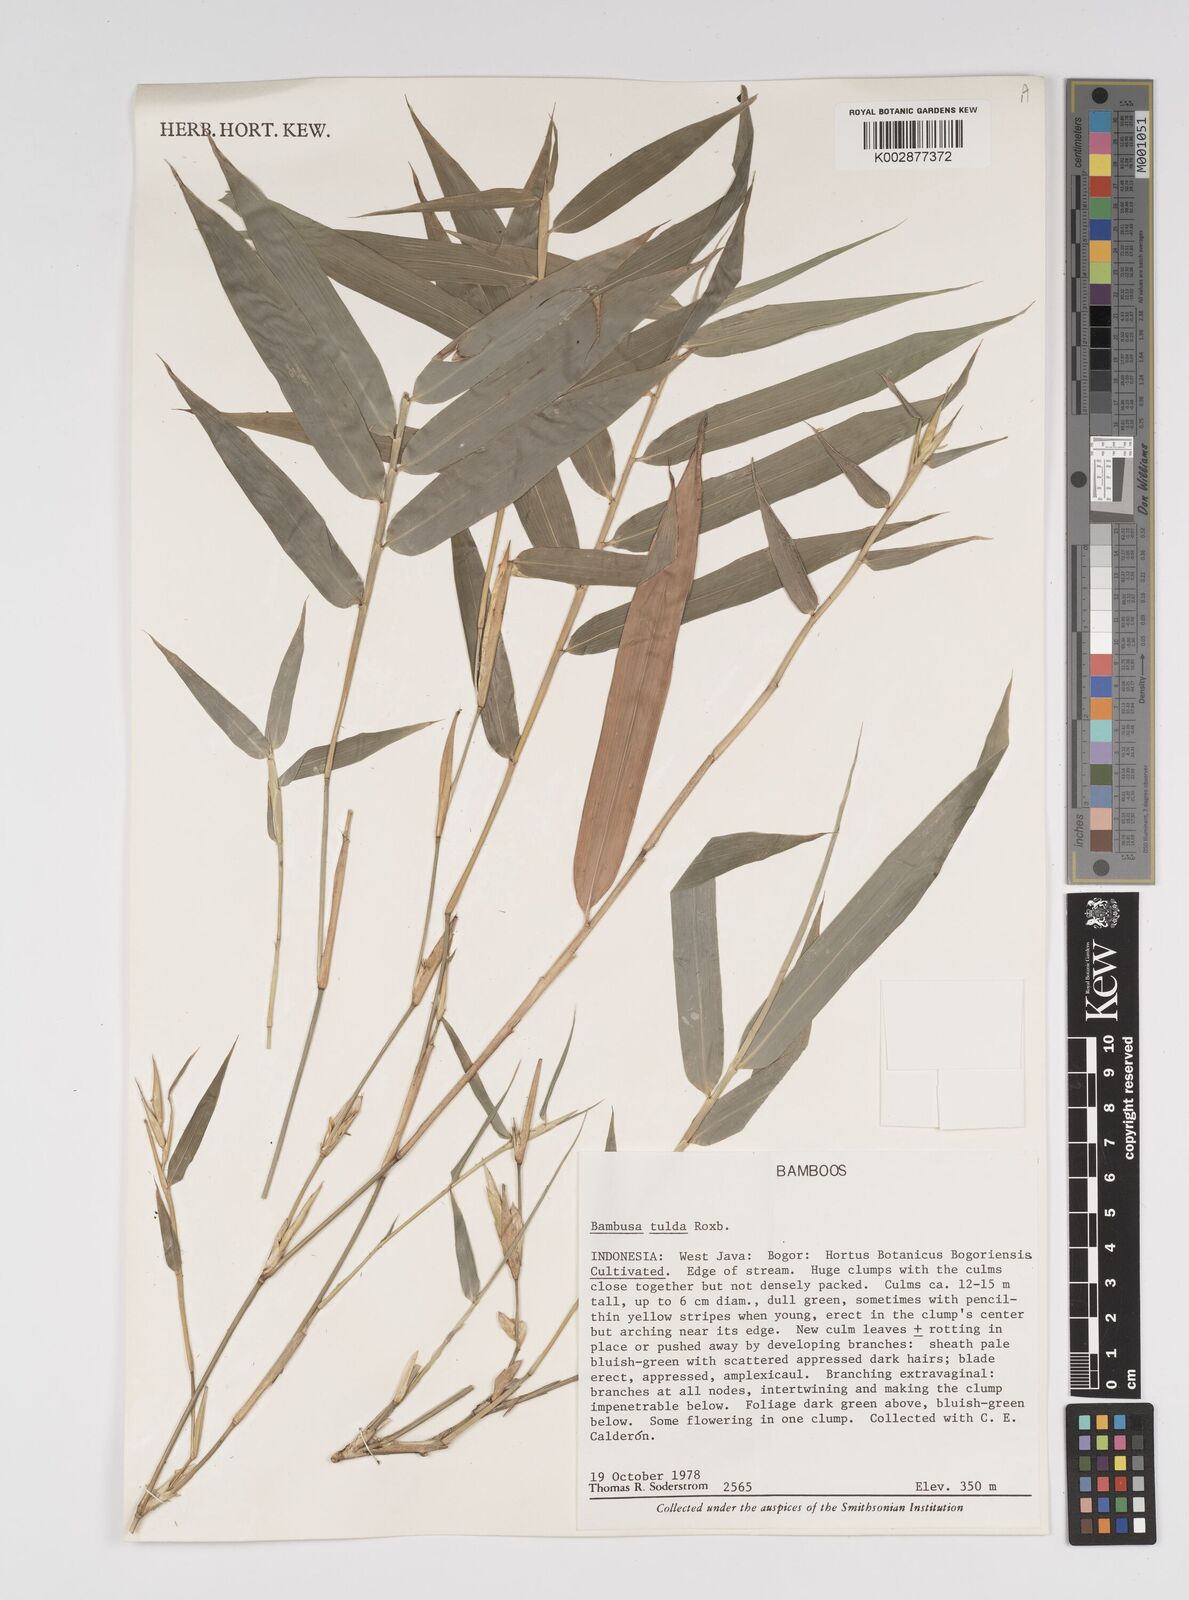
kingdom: Plantae
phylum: Tracheophyta
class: Liliopsida
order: Poales
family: Poaceae
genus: Bambusa
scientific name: Bambusa tulda
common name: Bengal bamboo
